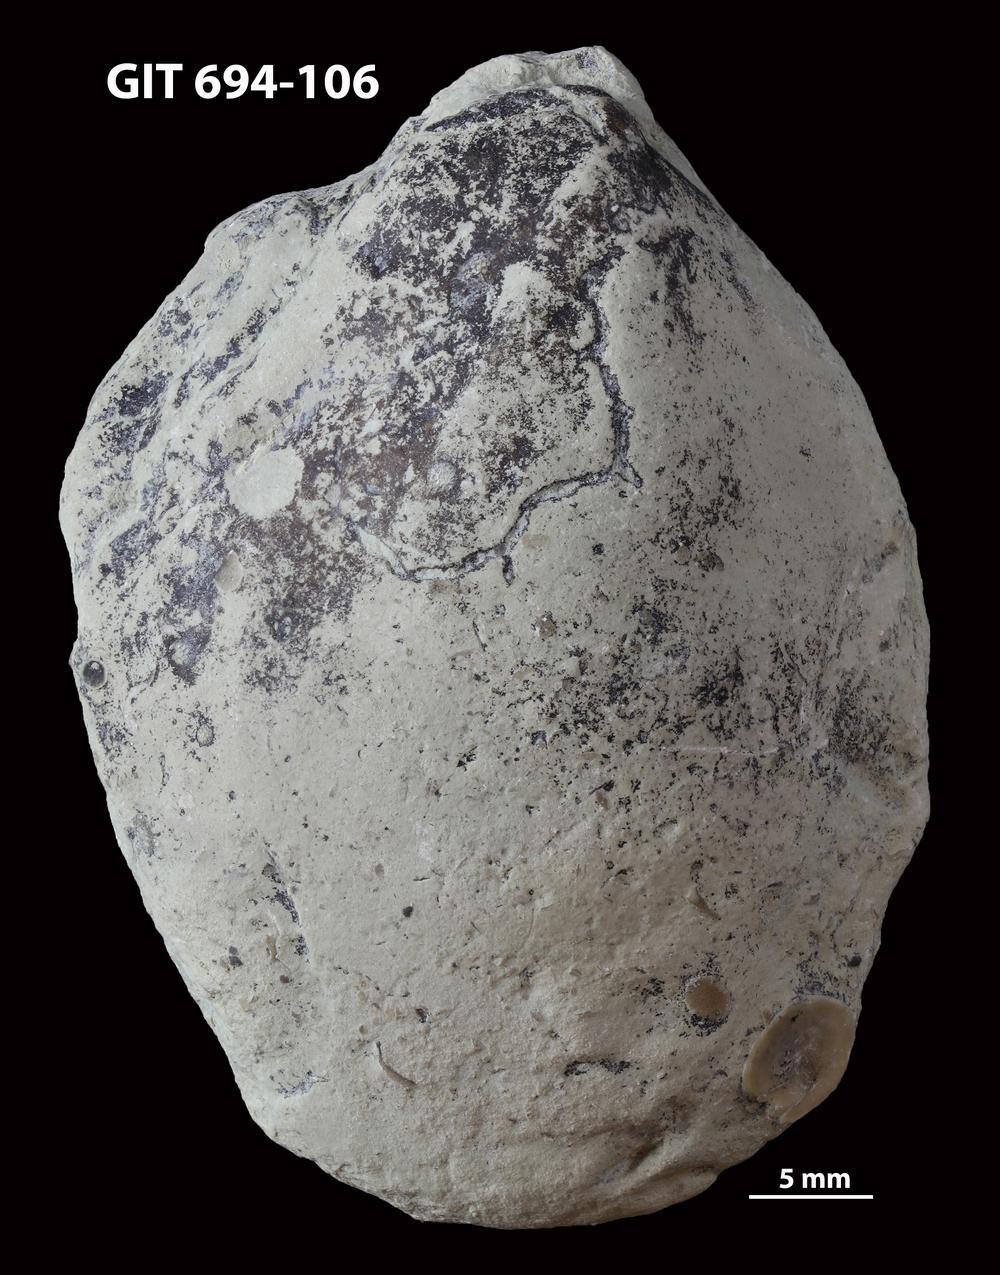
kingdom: Animalia
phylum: Mollusca
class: Bivalvia
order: Modiomorphida
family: Modiomorphidae
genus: Aristerella
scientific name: Aristerella
